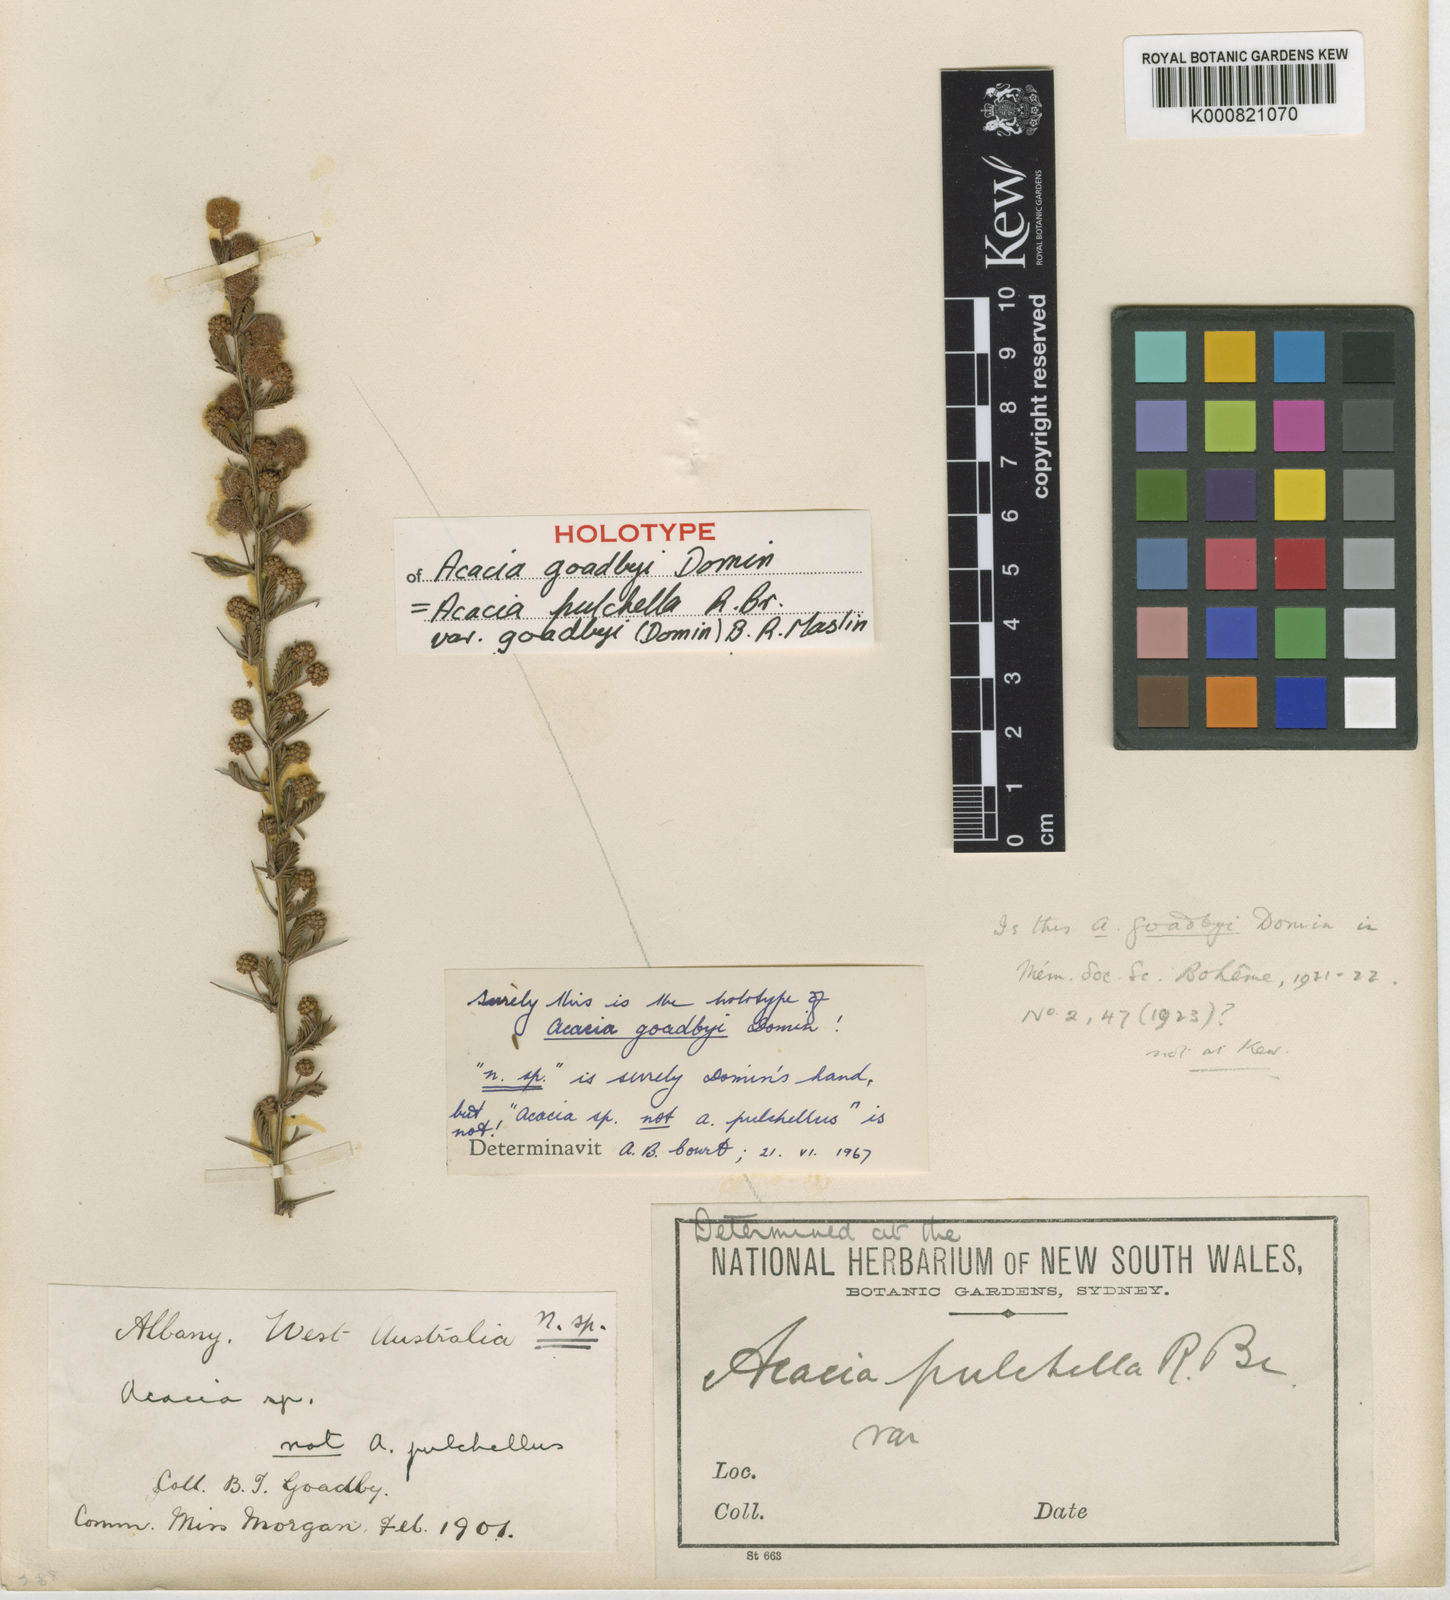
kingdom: Plantae
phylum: Tracheophyta
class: Magnoliopsida
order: Fabales
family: Fabaceae
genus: Acacia
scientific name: Acacia pulchella
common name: Prickly moses
